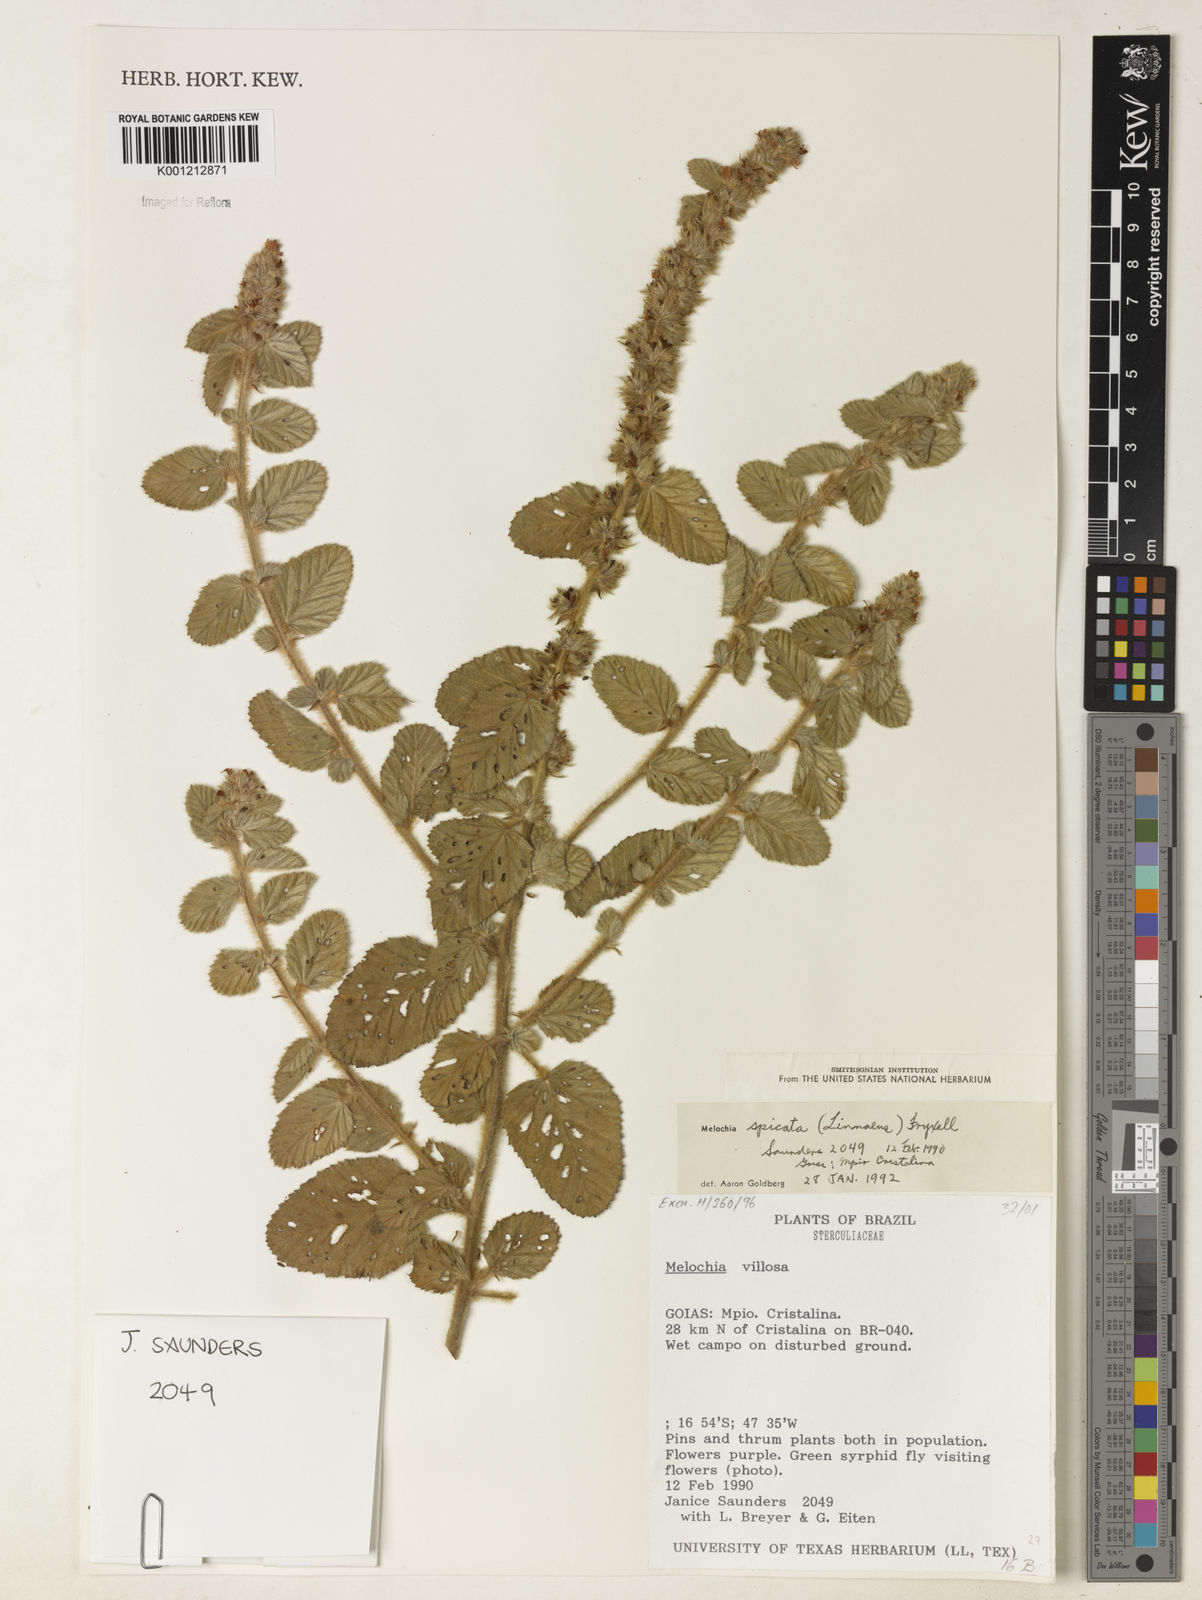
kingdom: Plantae
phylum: Tracheophyta
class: Magnoliopsida
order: Malvales
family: Malvaceae
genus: Melochia
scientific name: Melochia spicata
